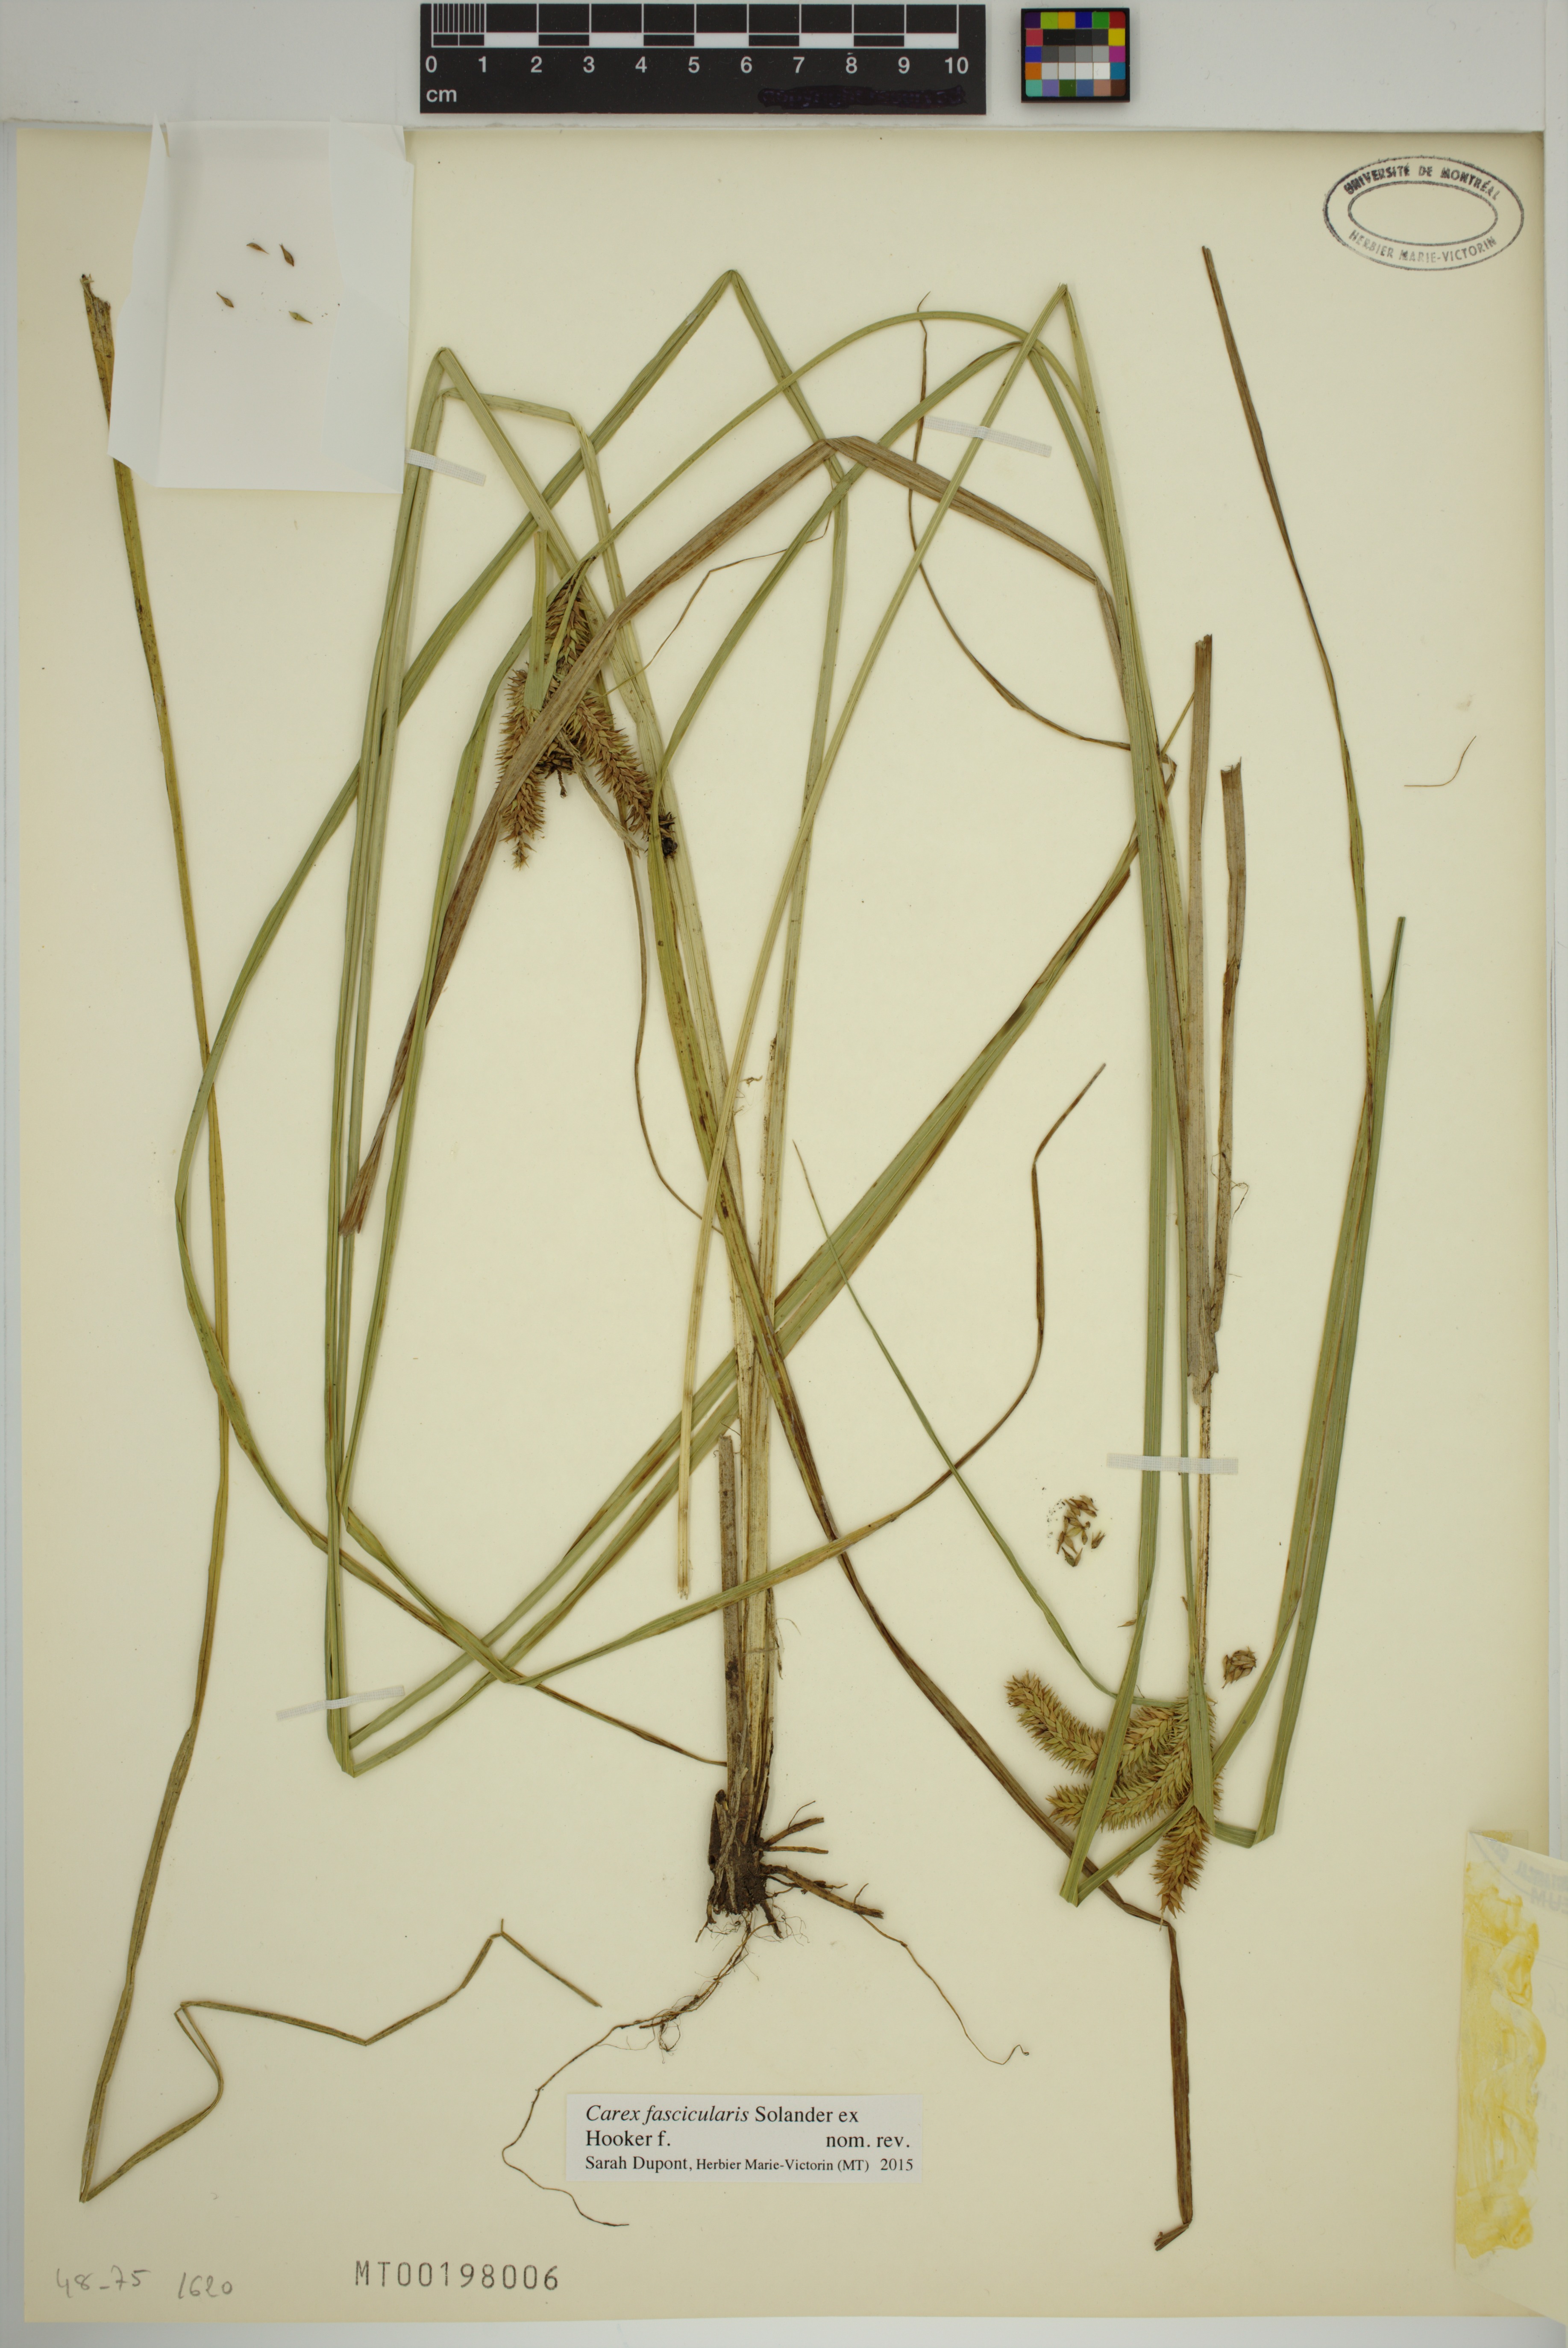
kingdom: Plantae
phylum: Tracheophyta
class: Liliopsida
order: Poales
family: Cyperaceae
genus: Carex
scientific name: Carex fascicularis
